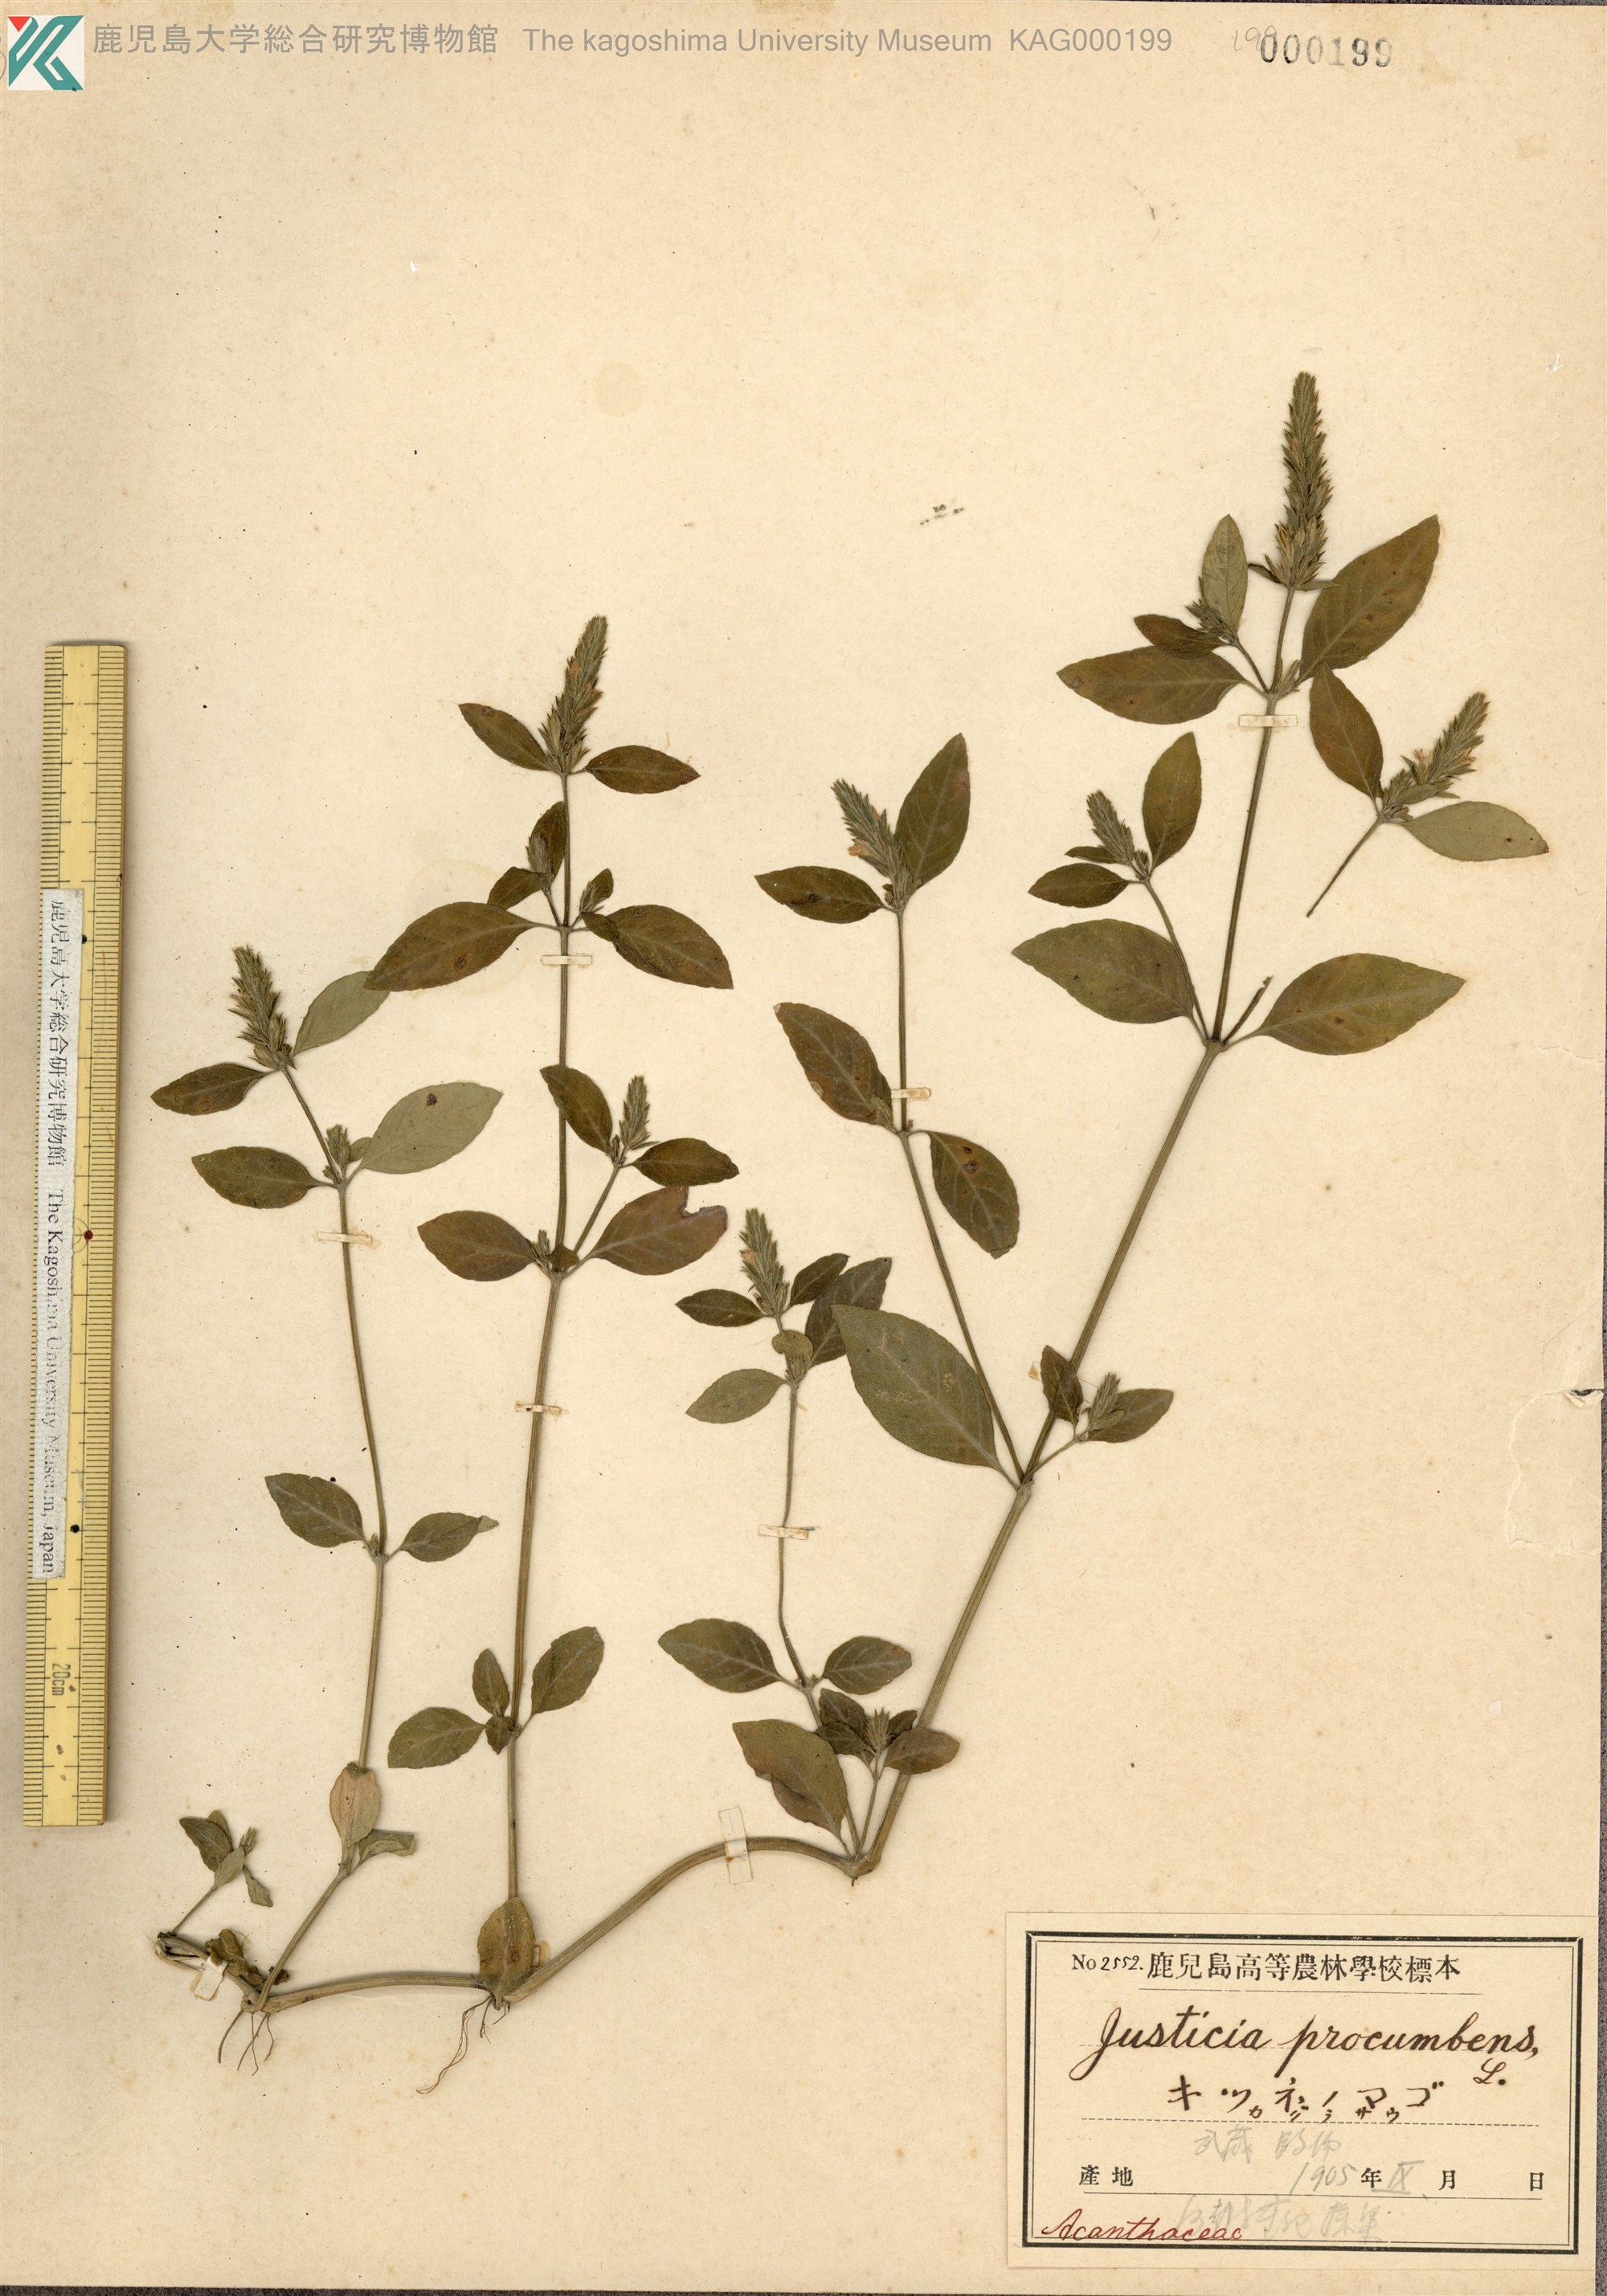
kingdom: Plantae
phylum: Tracheophyta
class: Magnoliopsida
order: Lamiales
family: Acanthaceae
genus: Rostellularia
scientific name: Rostellularia procumbens
